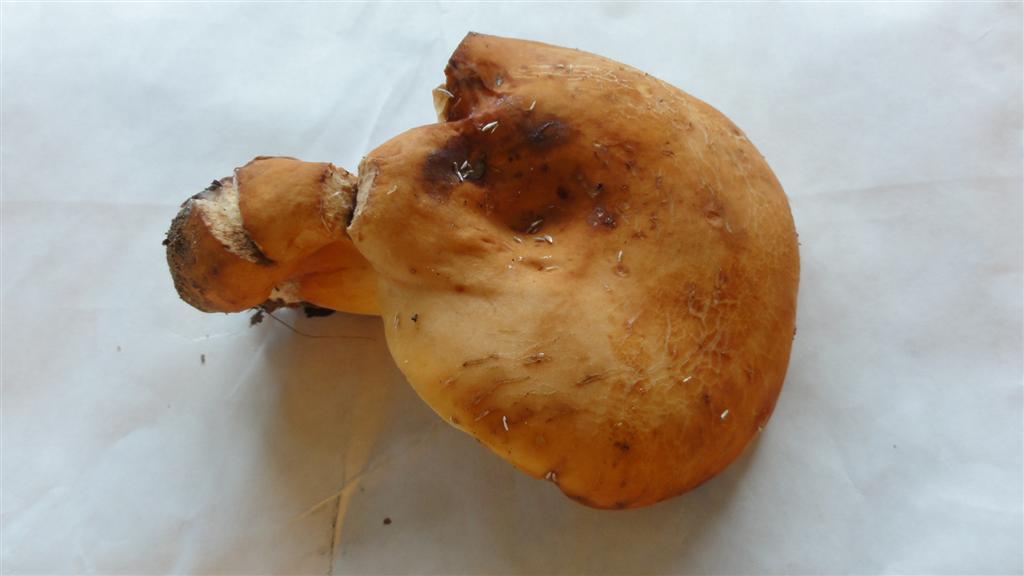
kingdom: Fungi
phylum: Basidiomycota
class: Agaricomycetes
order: Russulales
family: Russulaceae
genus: Lactifluus
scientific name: Lactifluus volemus
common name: spiselig mælkehat
